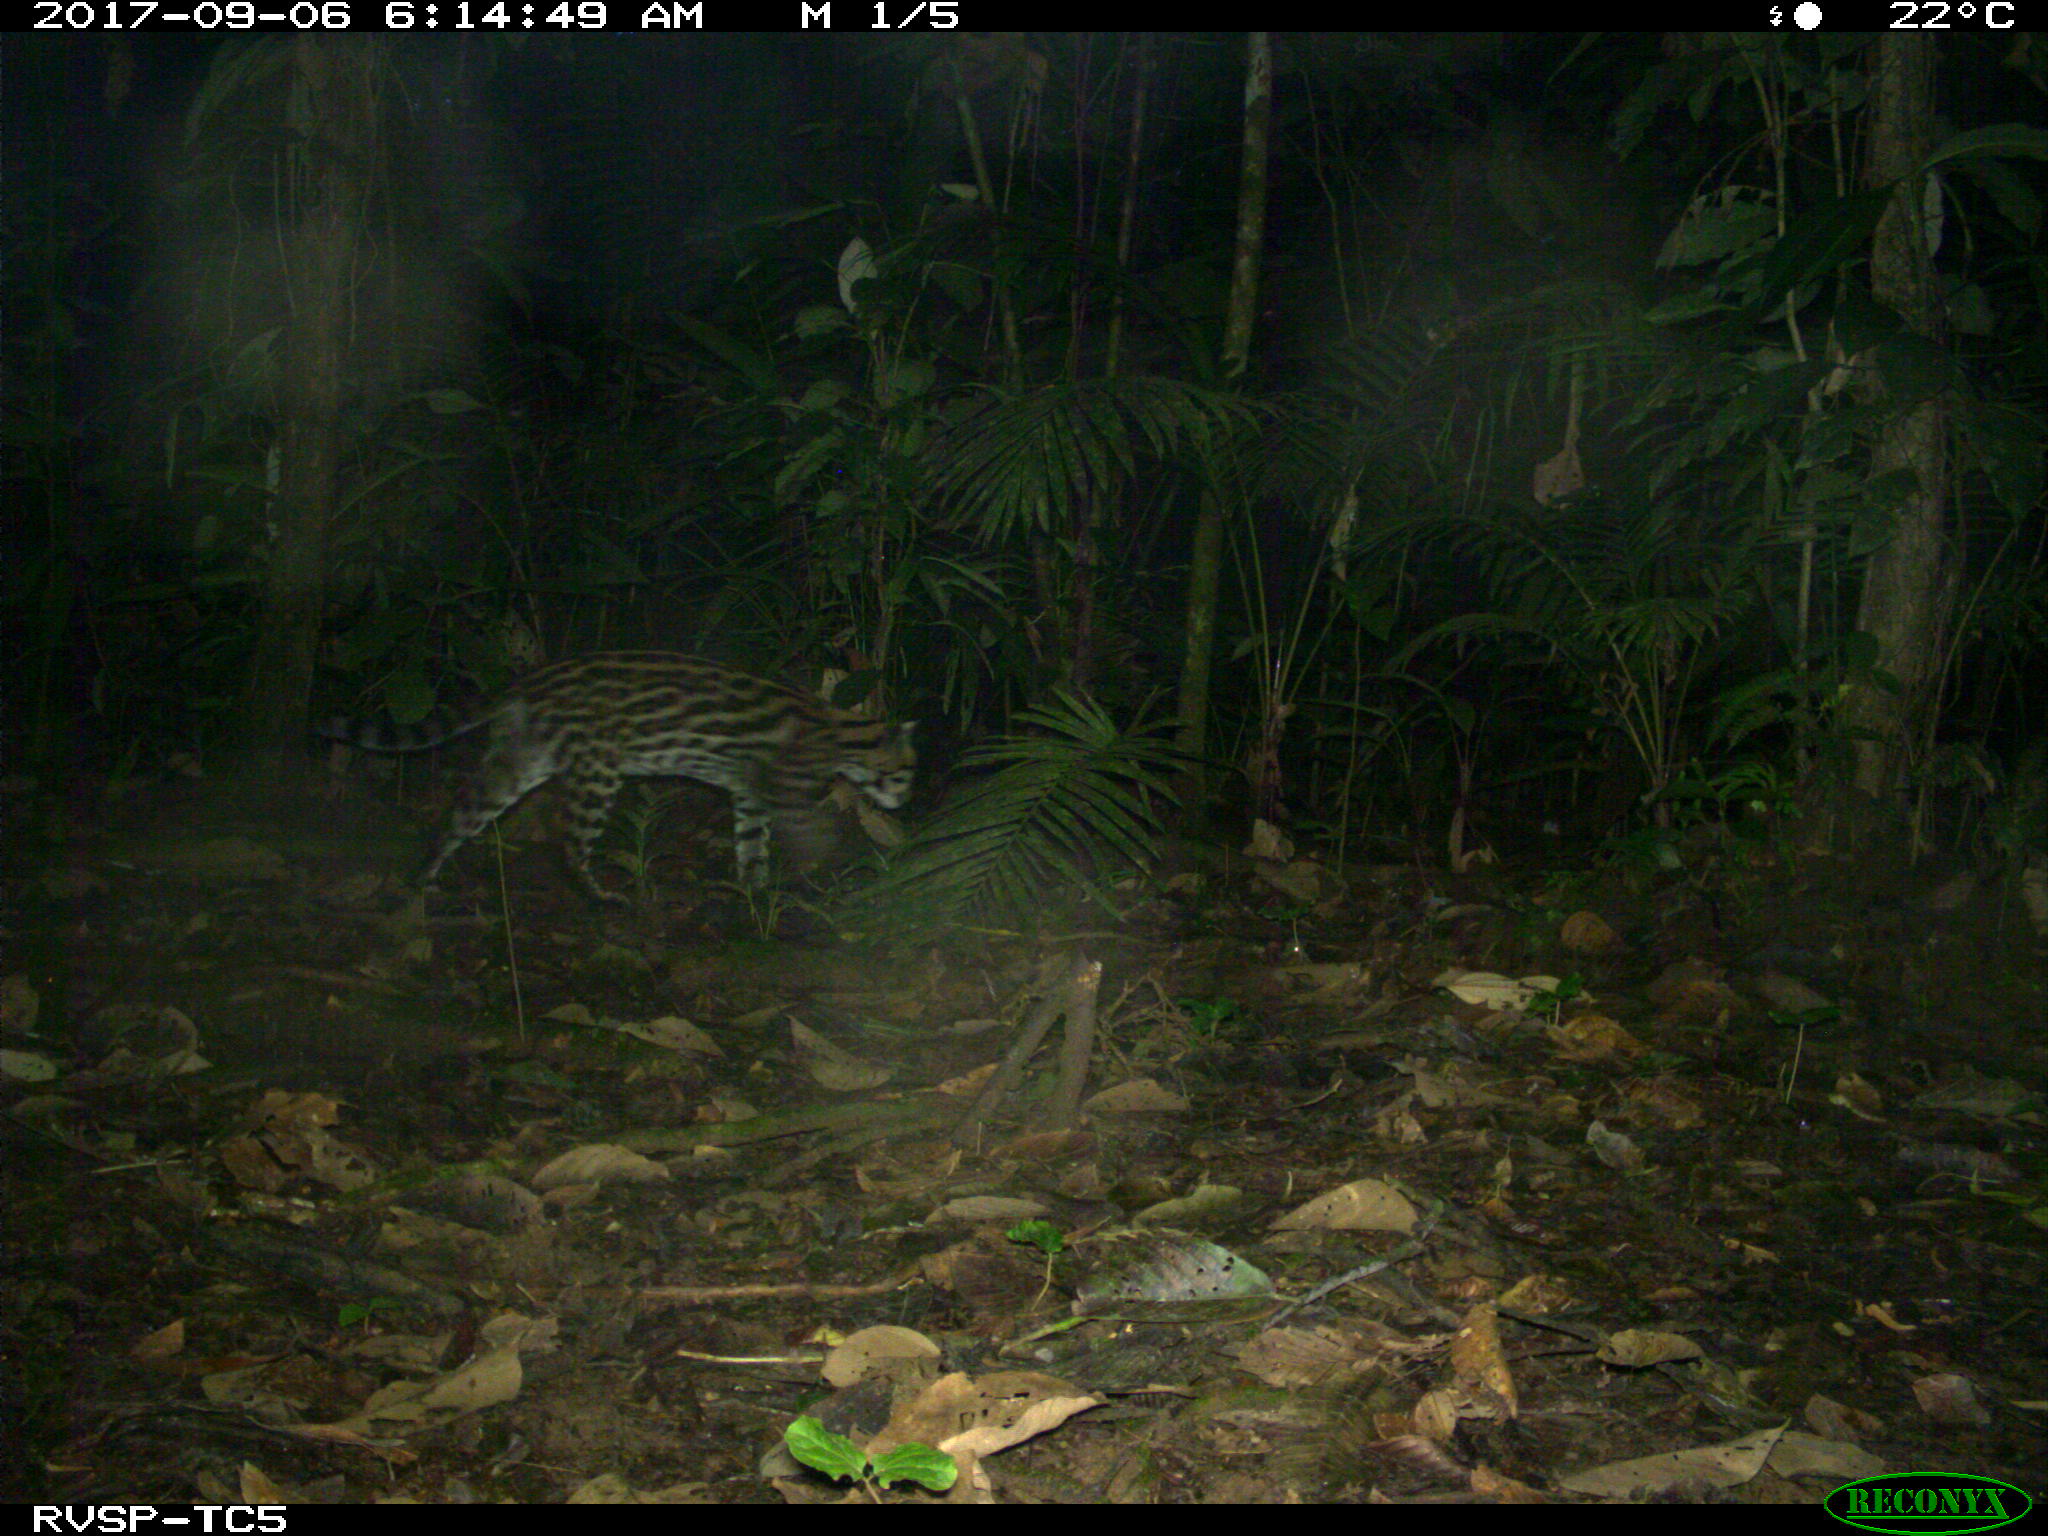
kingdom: Animalia
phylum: Chordata
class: Mammalia
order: Carnivora
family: Felidae
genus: Leopardus
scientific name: Leopardus pardalis
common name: Ocelot
